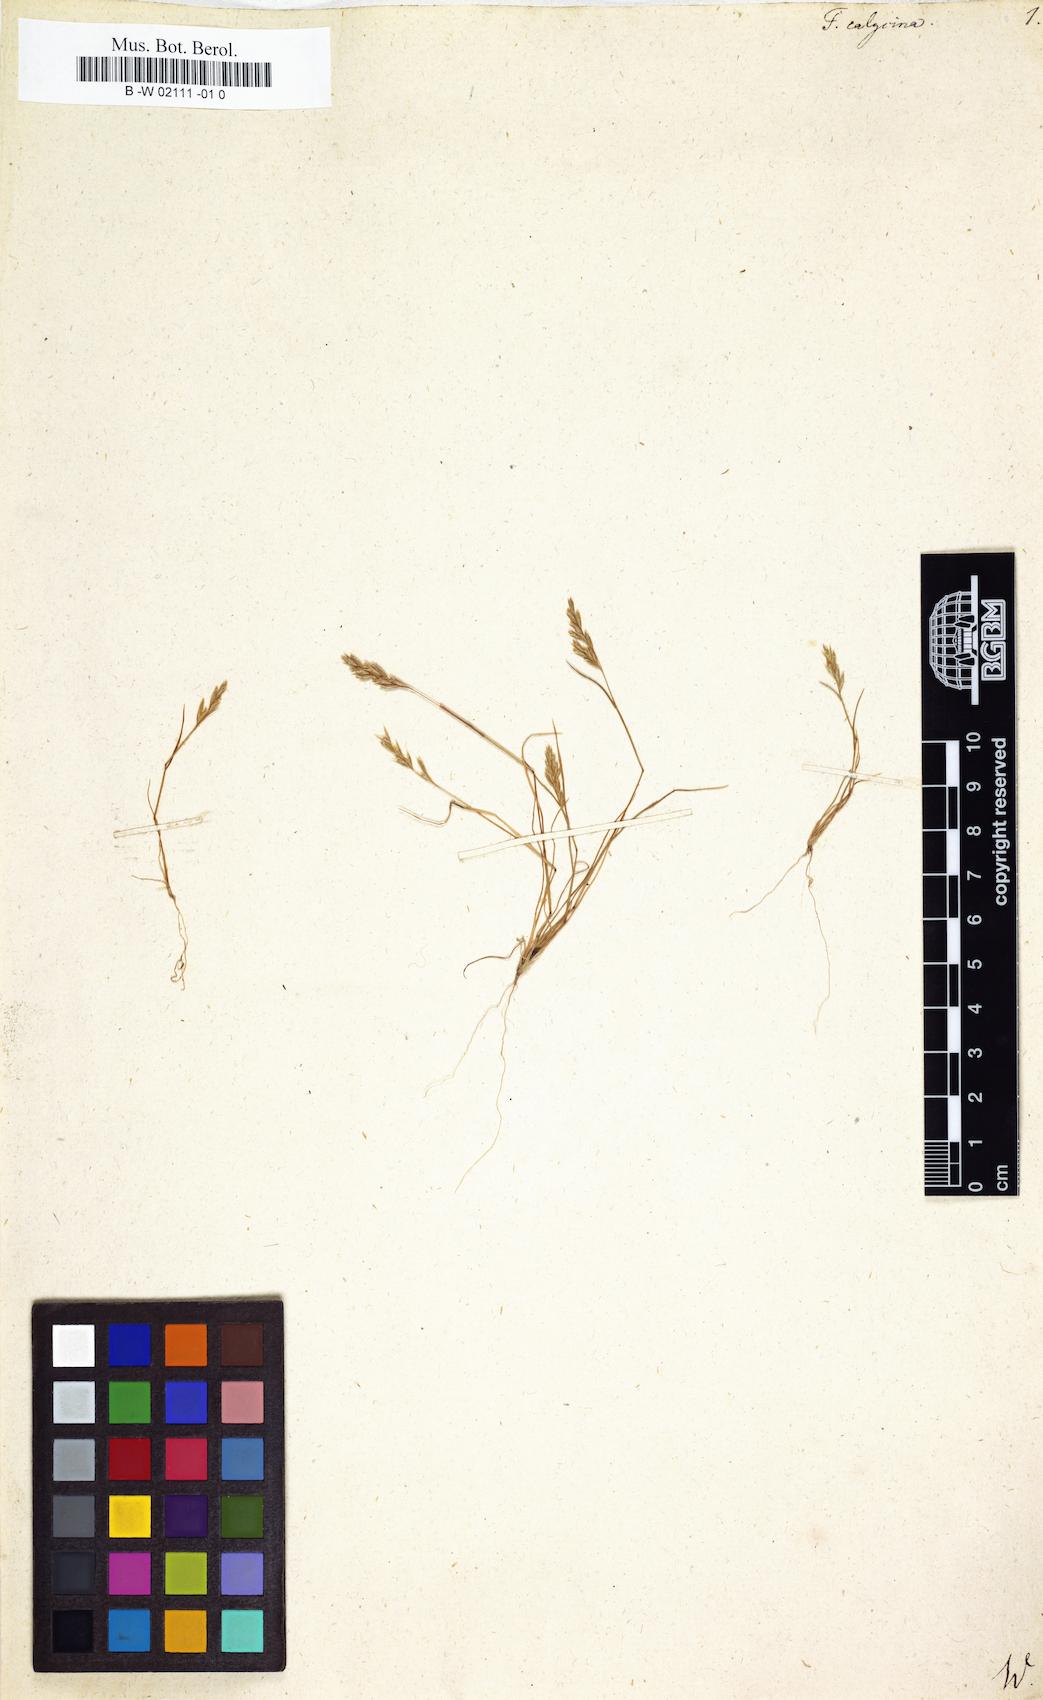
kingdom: Plantae
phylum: Tracheophyta
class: Liliopsida
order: Poales
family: Poaceae
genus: Schismus
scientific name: Schismus barbatus
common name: Kelch-grass
